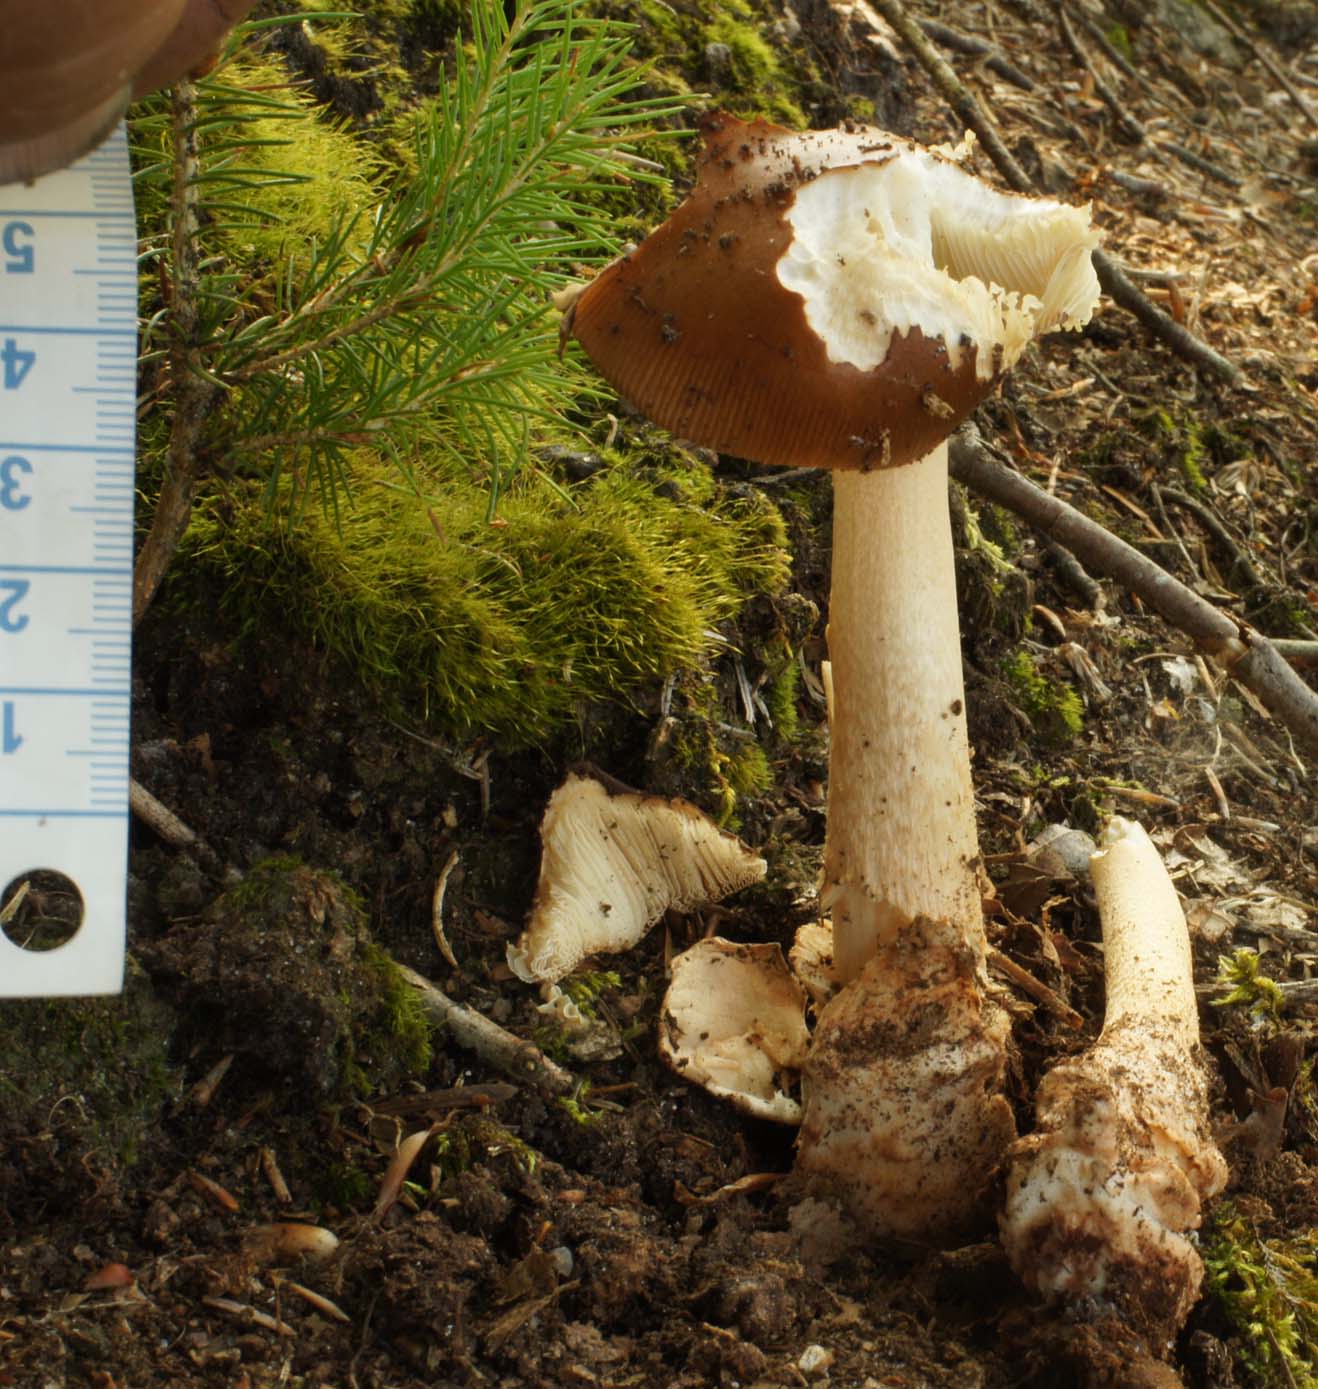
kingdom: Fungi
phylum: Basidiomycota
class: Agaricomycetes
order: Agaricales
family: Amanitaceae
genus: Amanita
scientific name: Amanita fulva
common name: brun kam-fluesvamp
